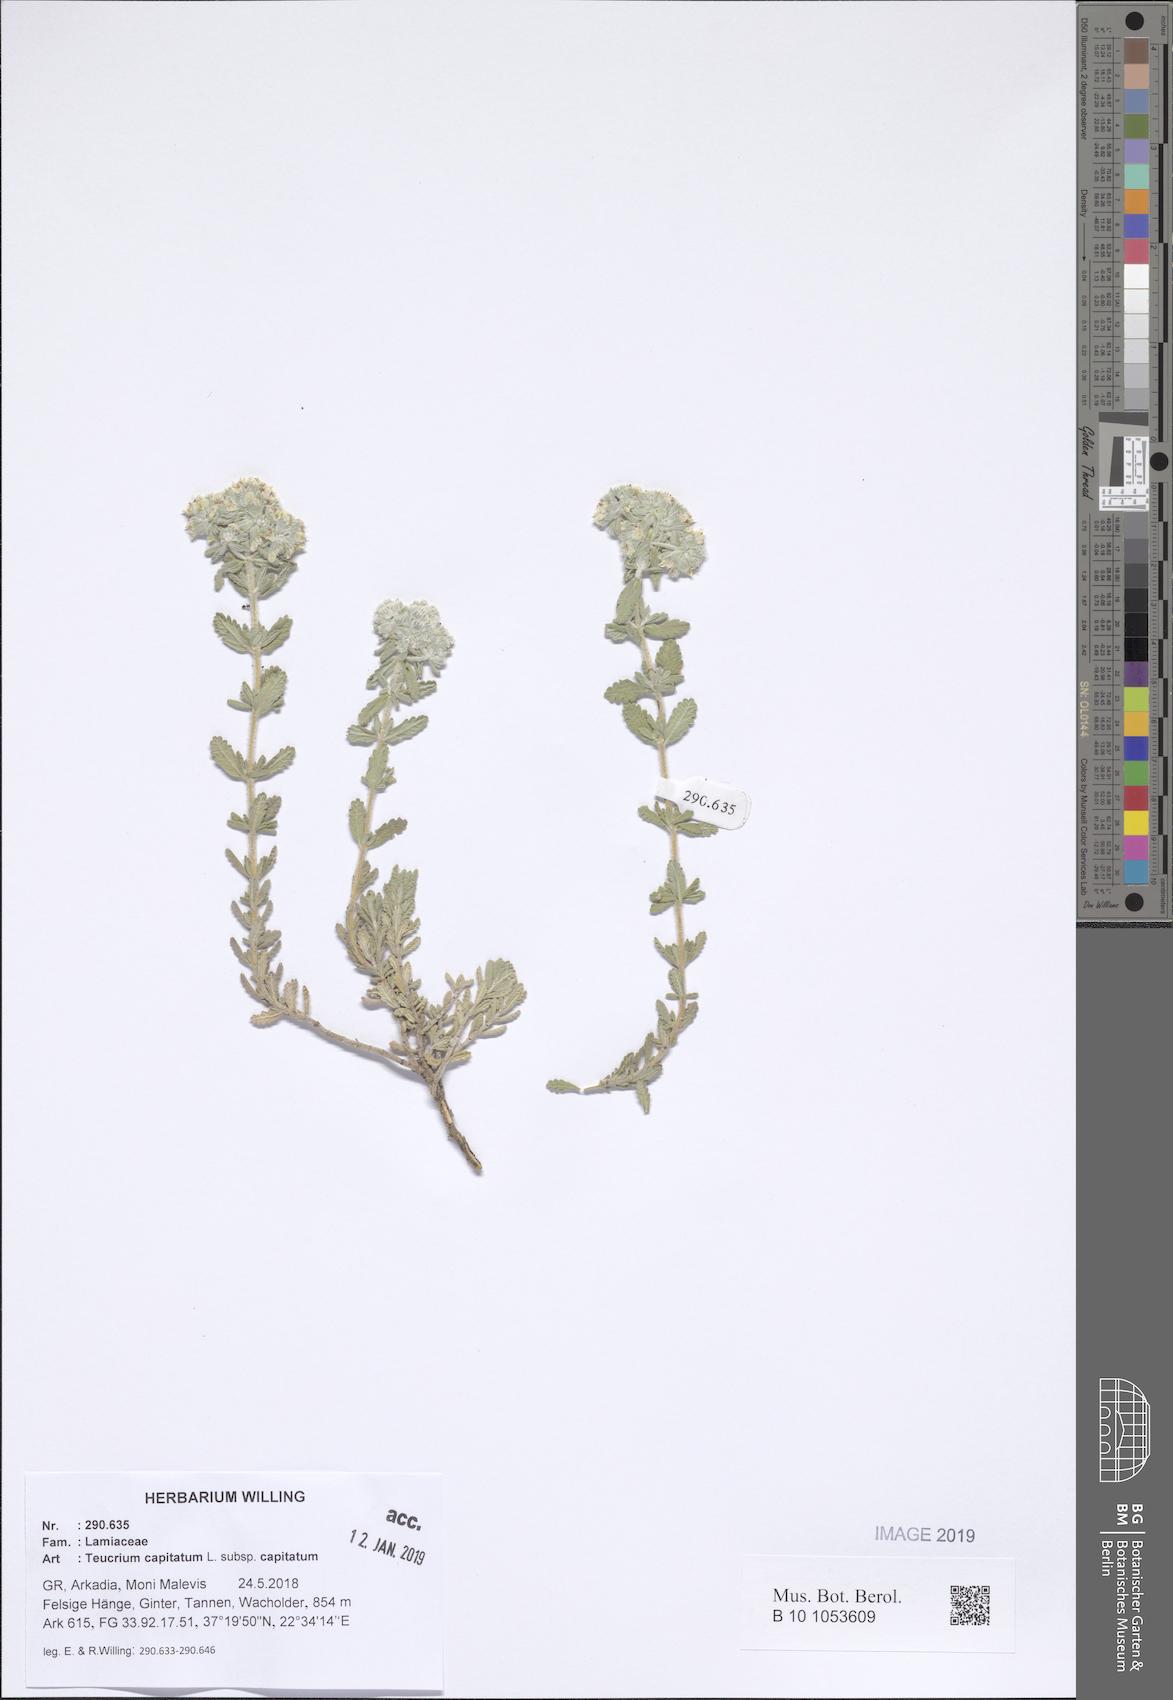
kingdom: Plantae
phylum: Tracheophyta
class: Magnoliopsida
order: Lamiales
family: Lamiaceae
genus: Teucrium
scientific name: Teucrium capitatum
